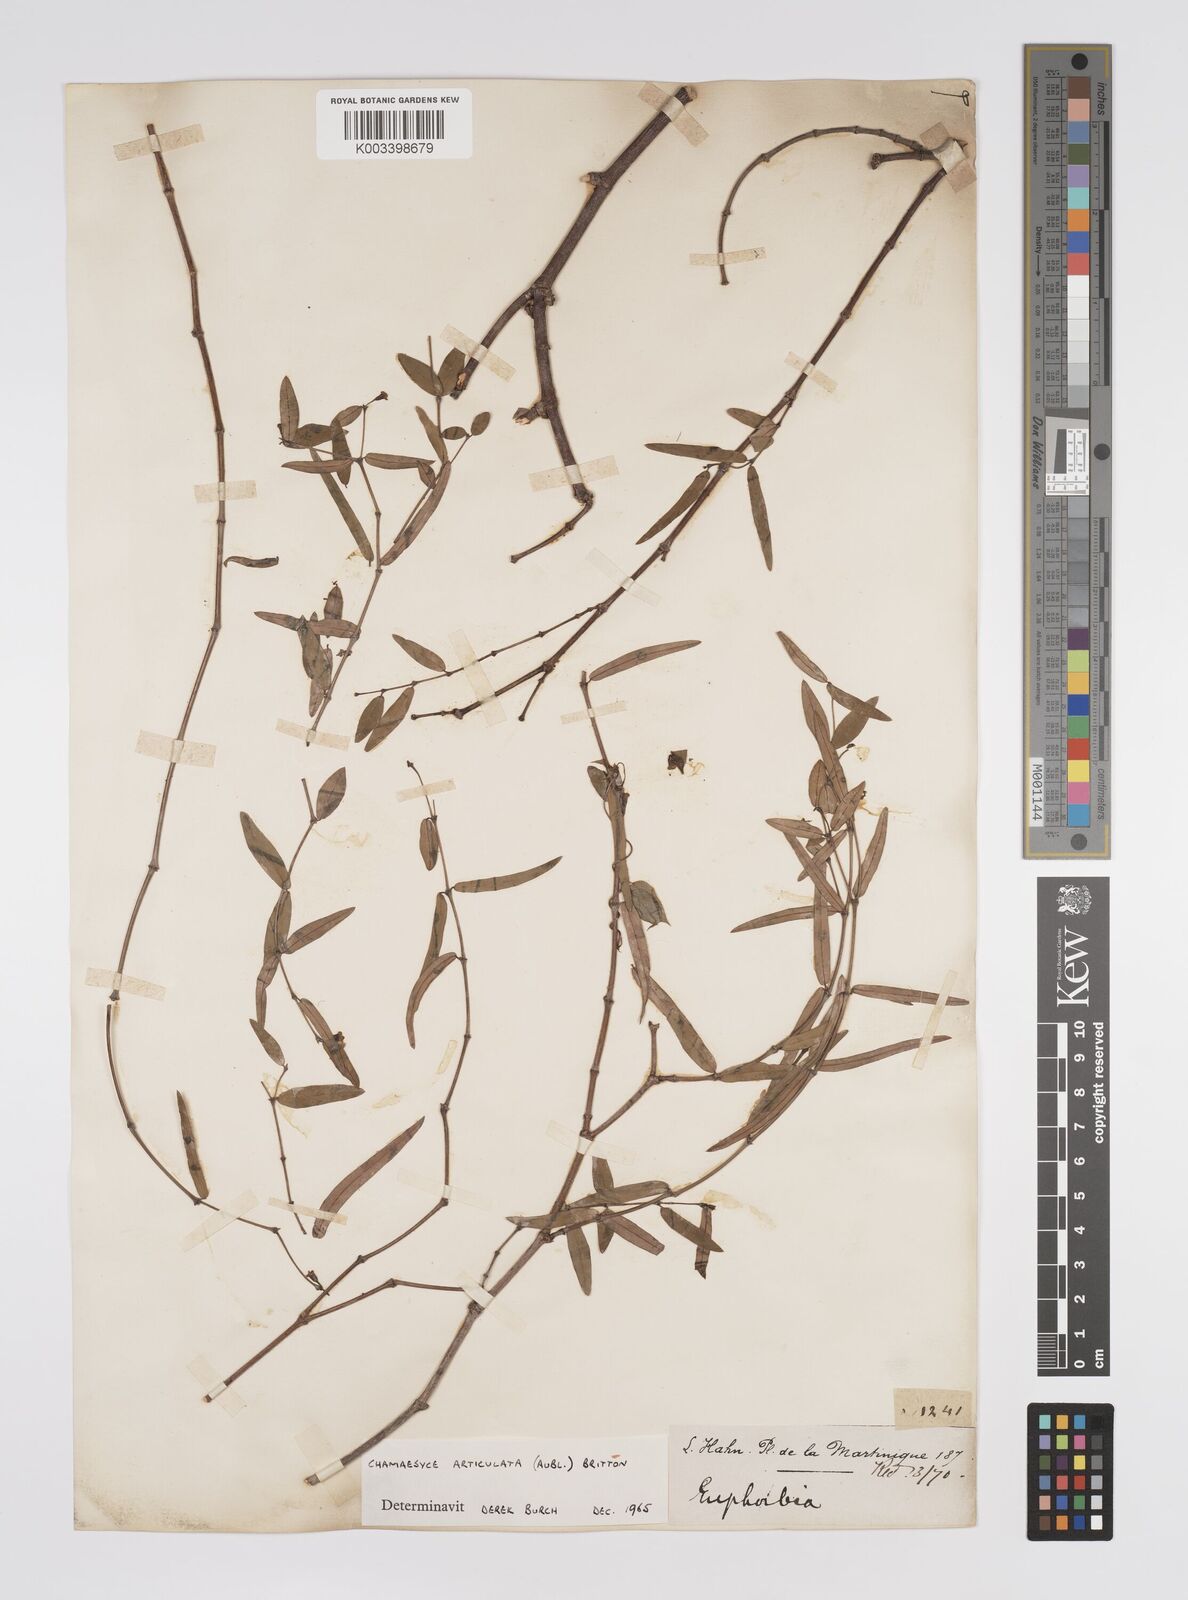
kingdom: Plantae
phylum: Tracheophyta
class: Magnoliopsida
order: Malpighiales
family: Euphorbiaceae
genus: Euphorbia
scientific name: Euphorbia articulata
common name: Jointed sandmat
